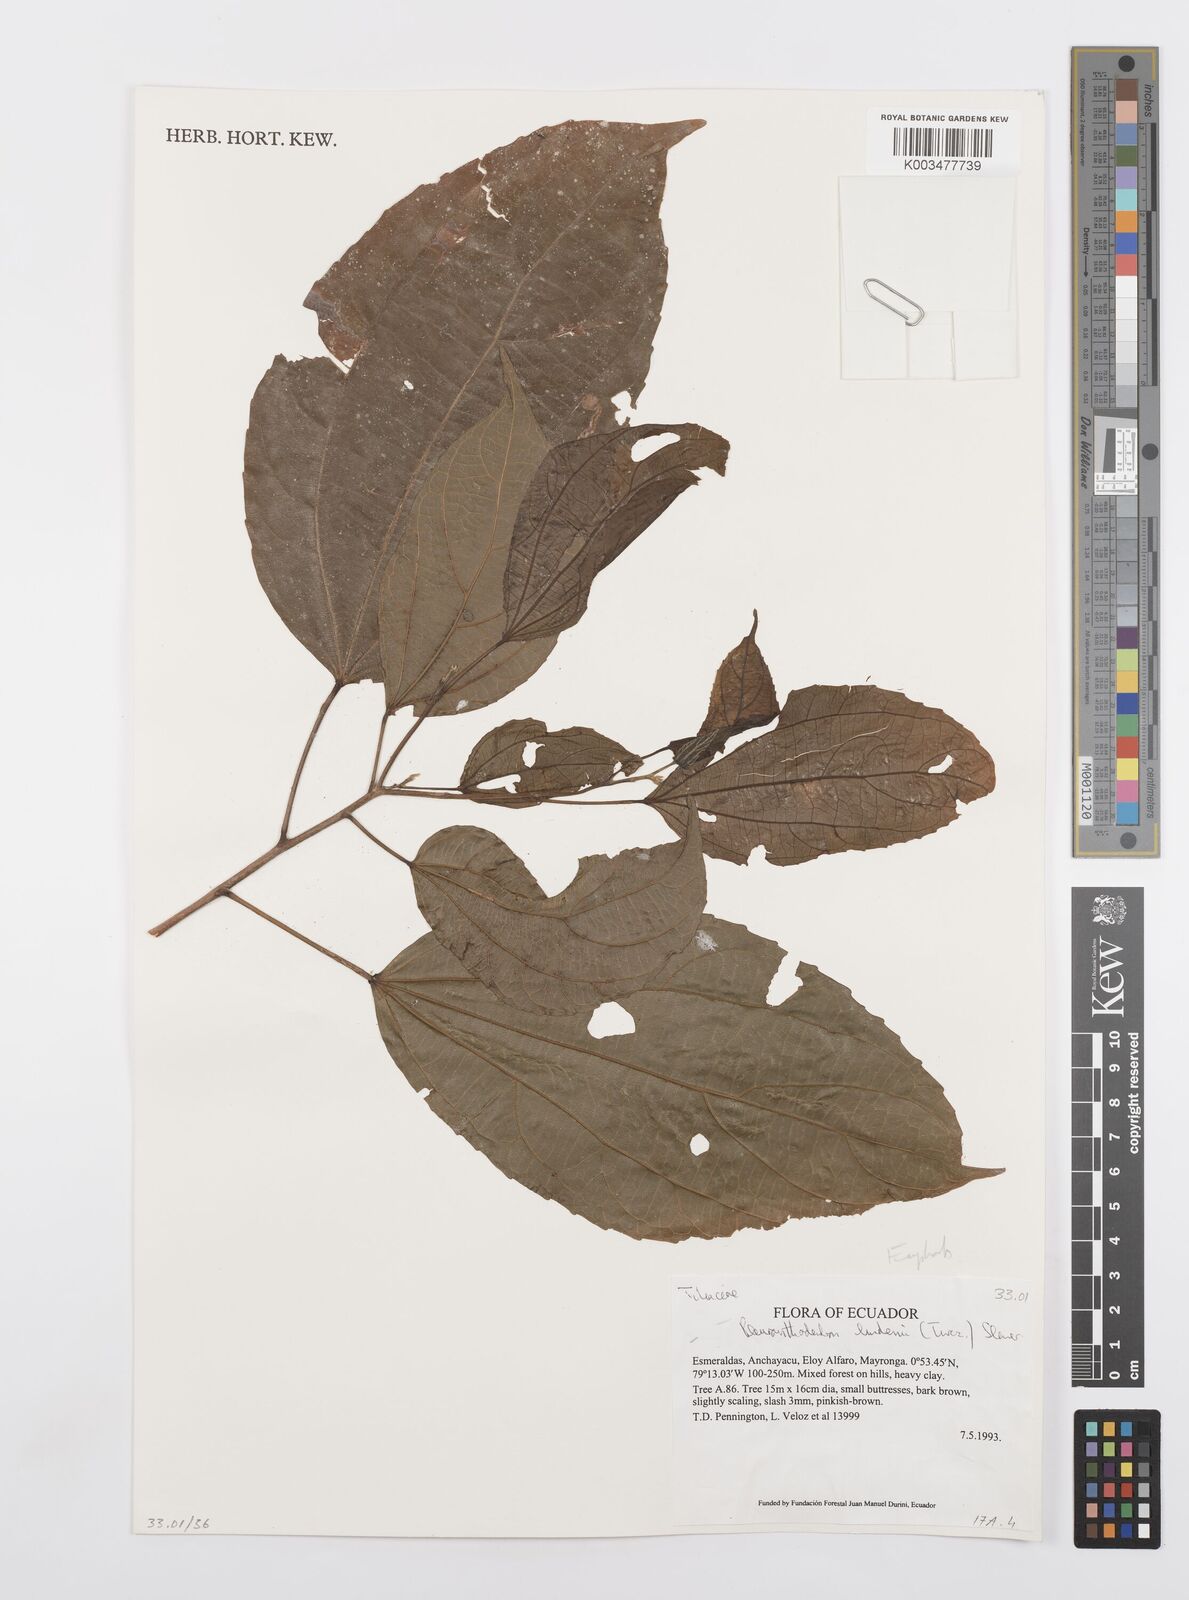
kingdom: Plantae
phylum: Tracheophyta
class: Magnoliopsida
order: Malpighiales
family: Salicaceae
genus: Pleuranthodendron
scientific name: Pleuranthodendron lindenii
